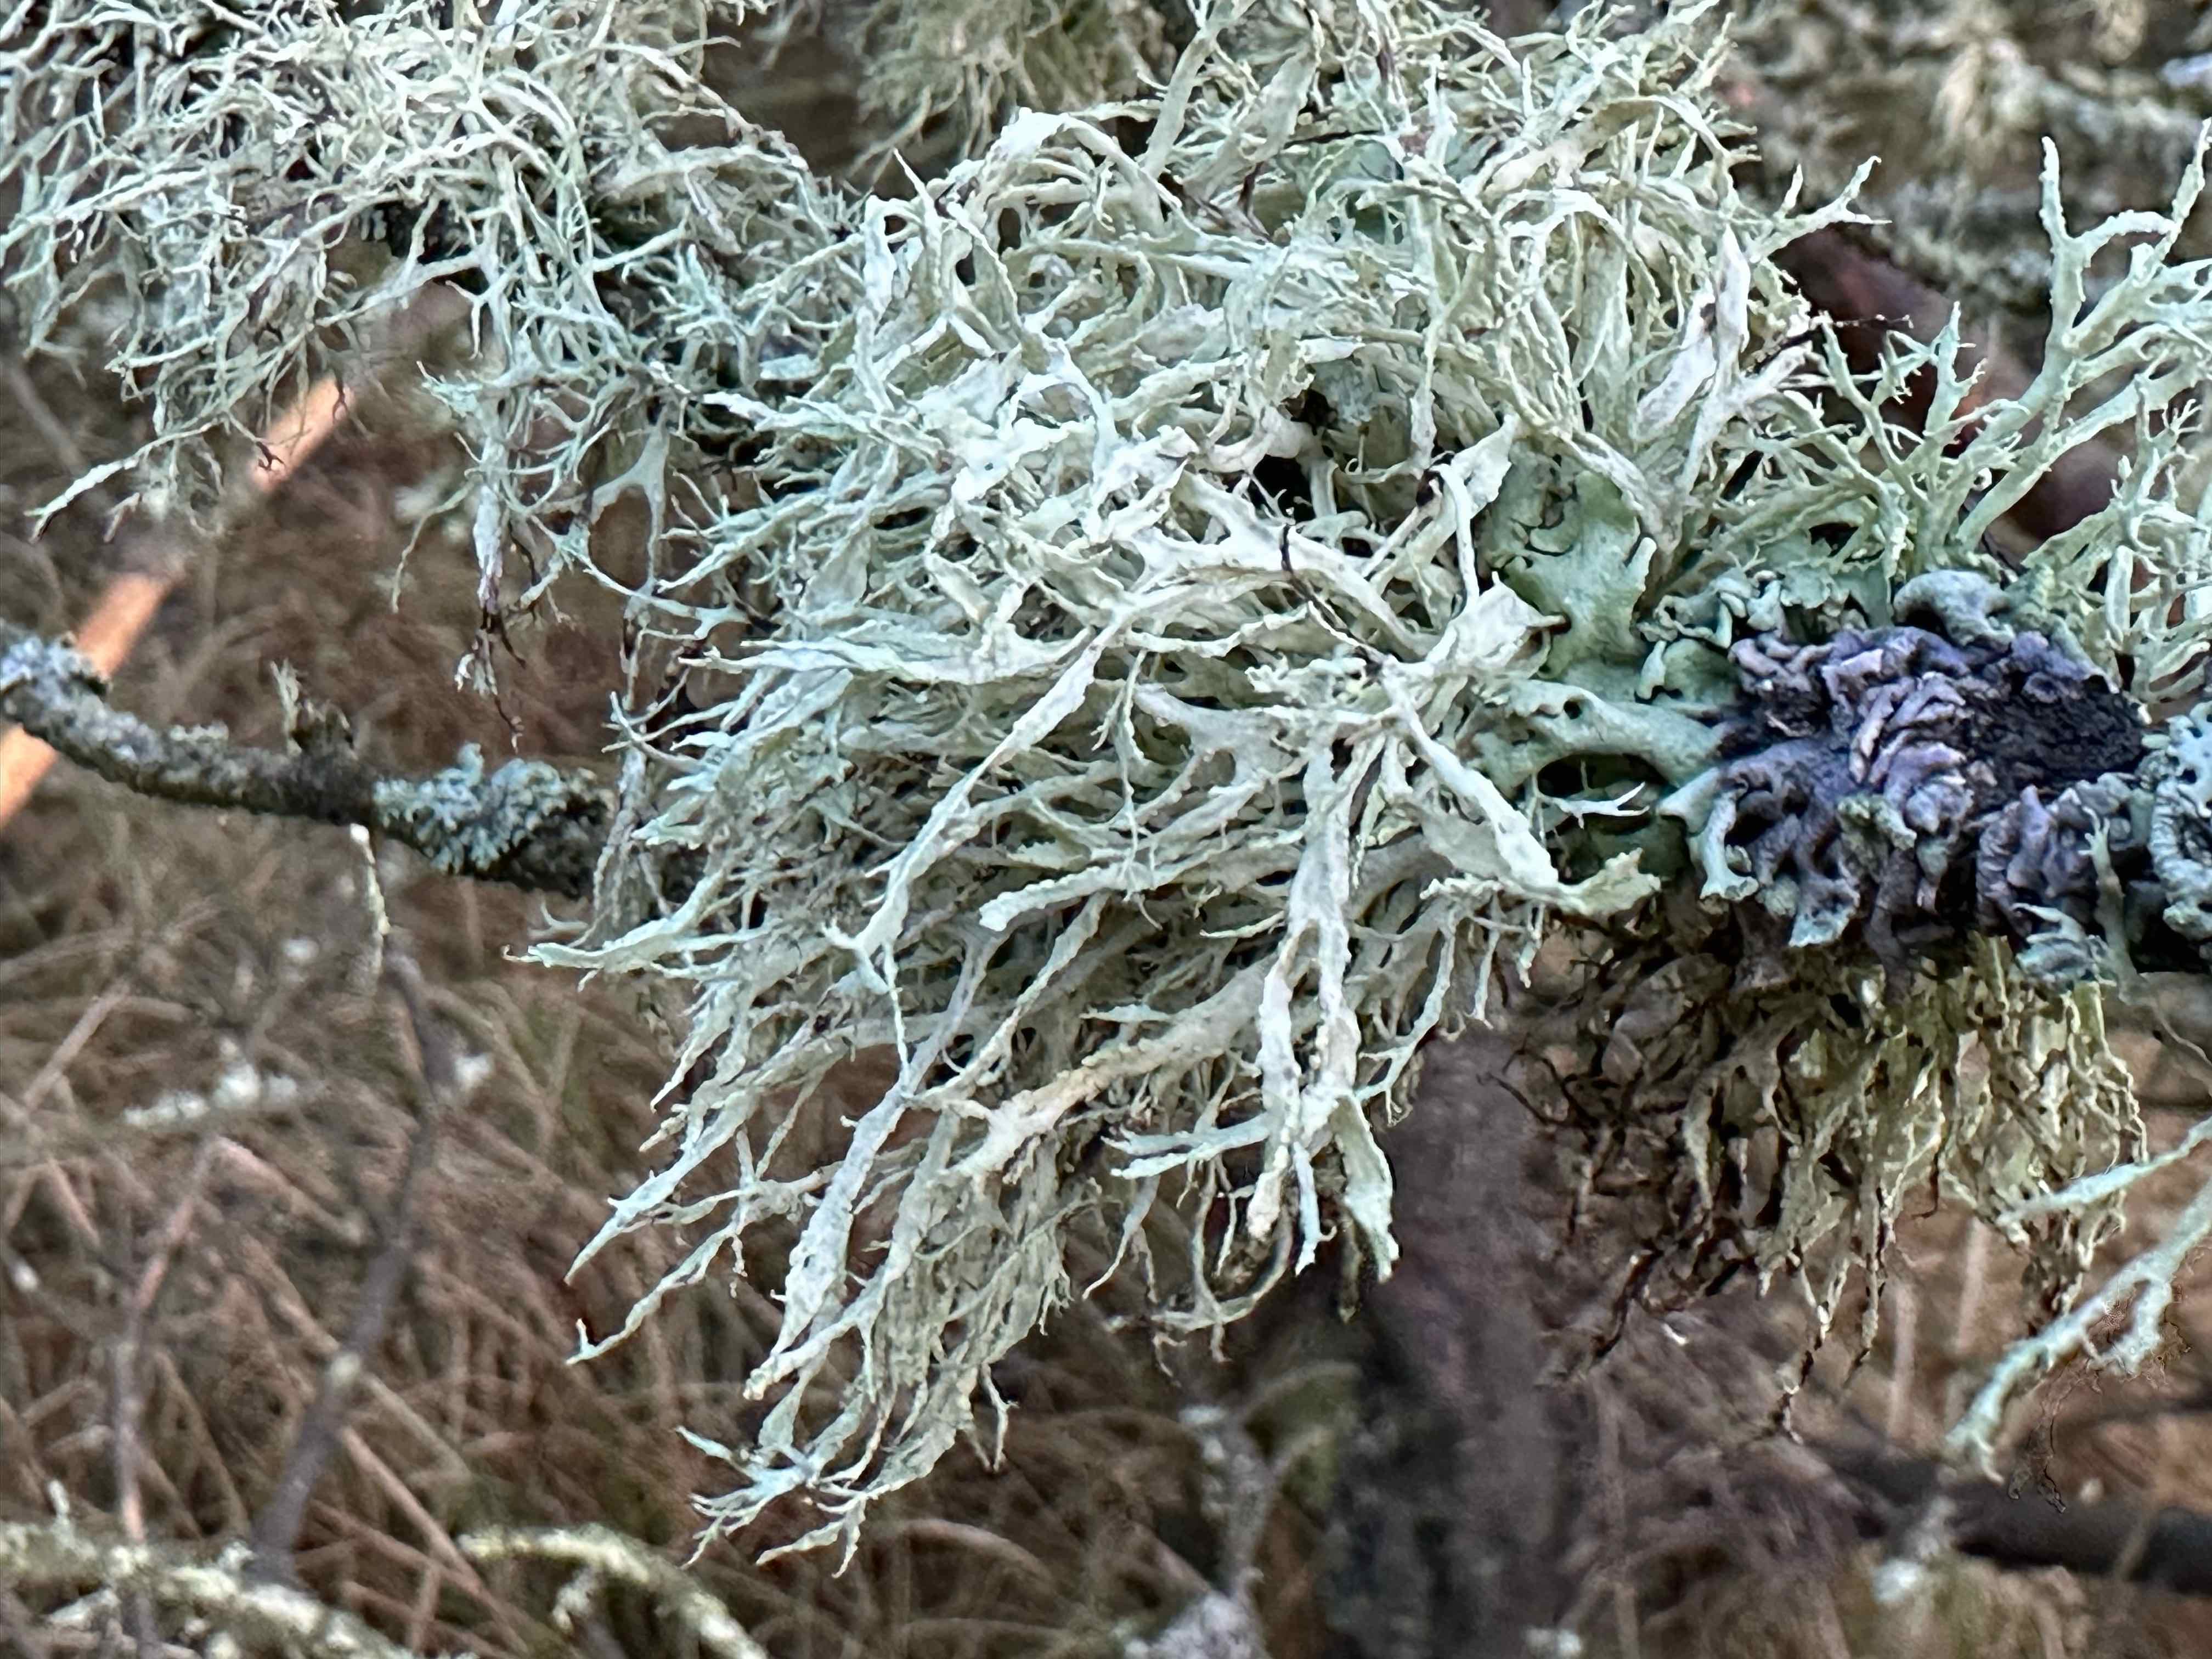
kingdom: Fungi
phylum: Ascomycota
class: Lecanoromycetes
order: Lecanorales
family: Ramalinaceae
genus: Ramalina
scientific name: Ramalina farinacea
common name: melet grenlav
